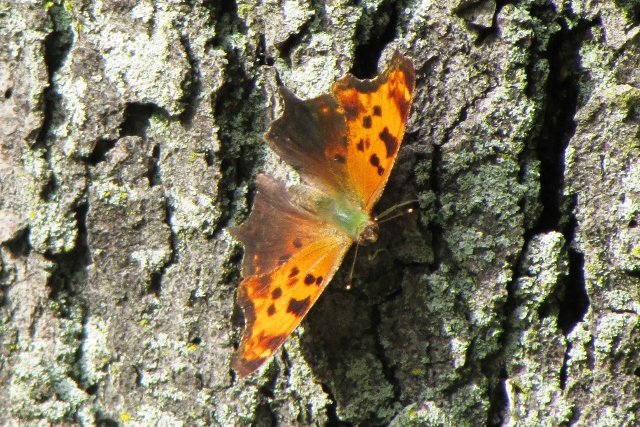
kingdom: Animalia
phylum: Arthropoda
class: Insecta
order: Lepidoptera
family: Nymphalidae
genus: Polygonia
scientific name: Polygonia comma
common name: Eastern Comma
